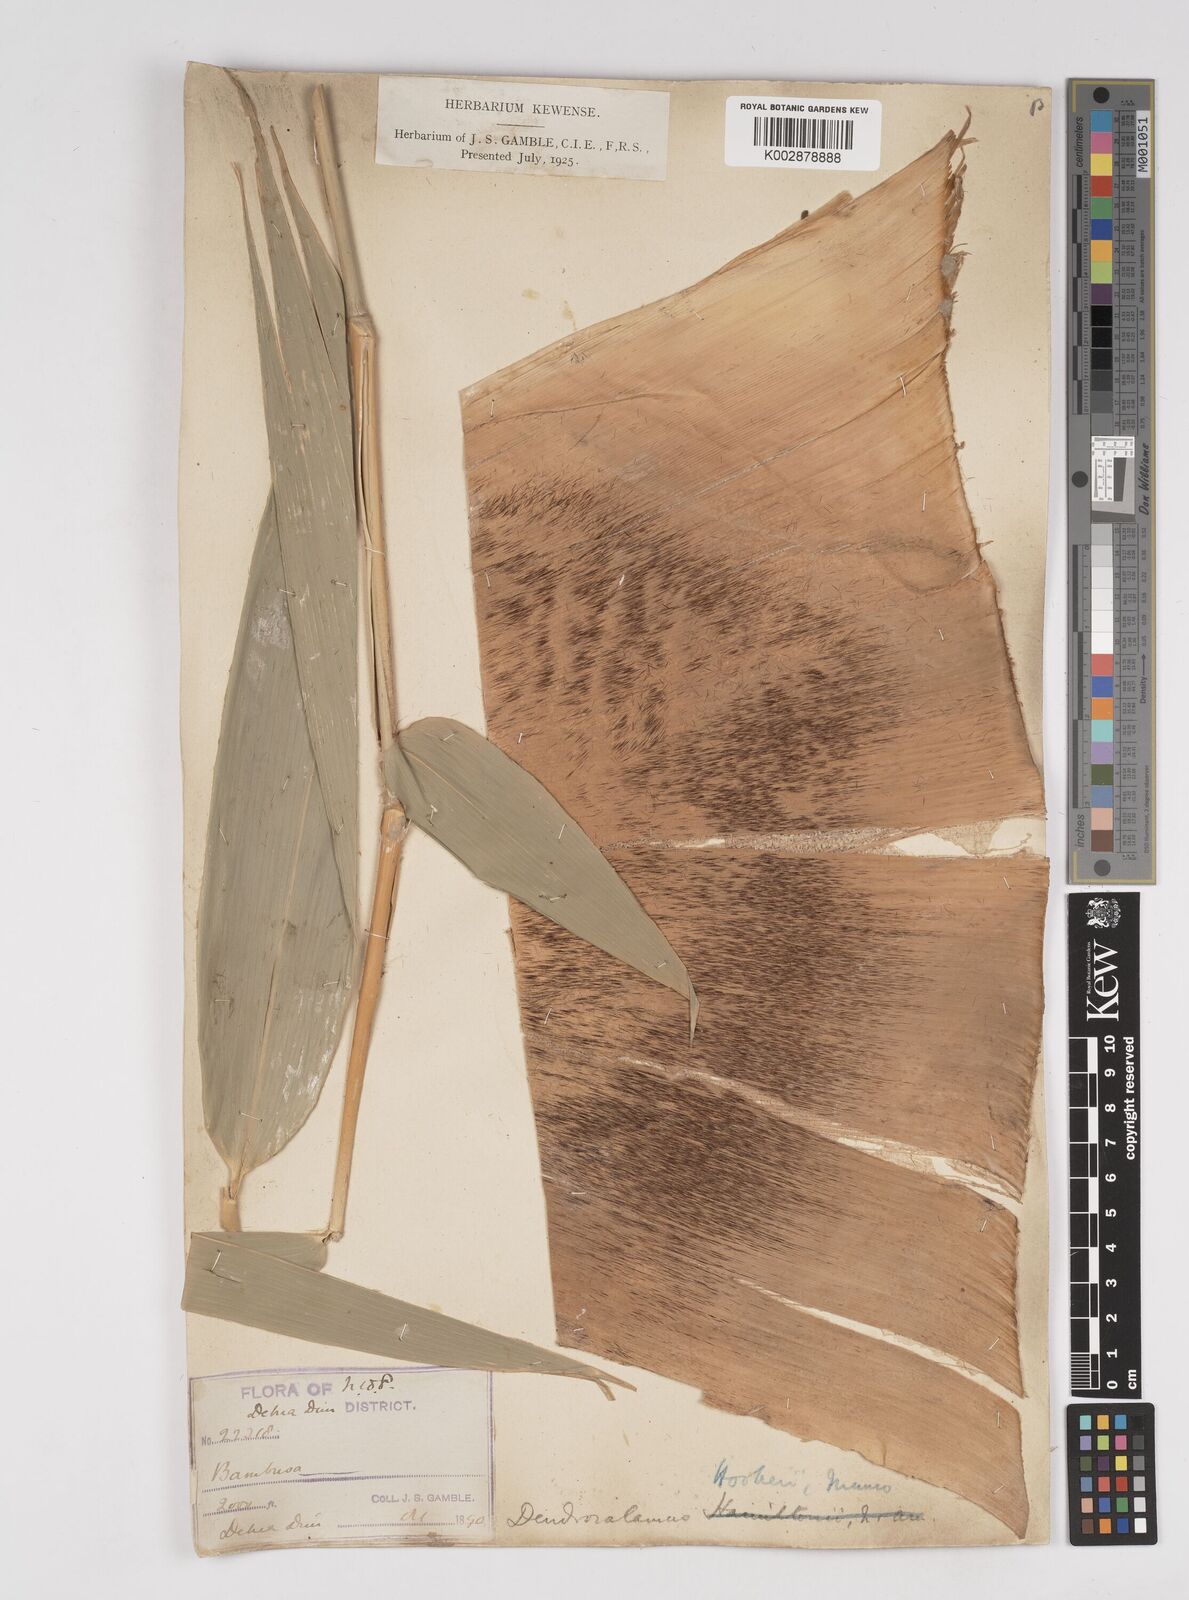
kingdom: Plantae
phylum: Tracheophyta
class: Liliopsida
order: Poales
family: Poaceae
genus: Dendrocalamus
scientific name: Dendrocalamus hookeri
